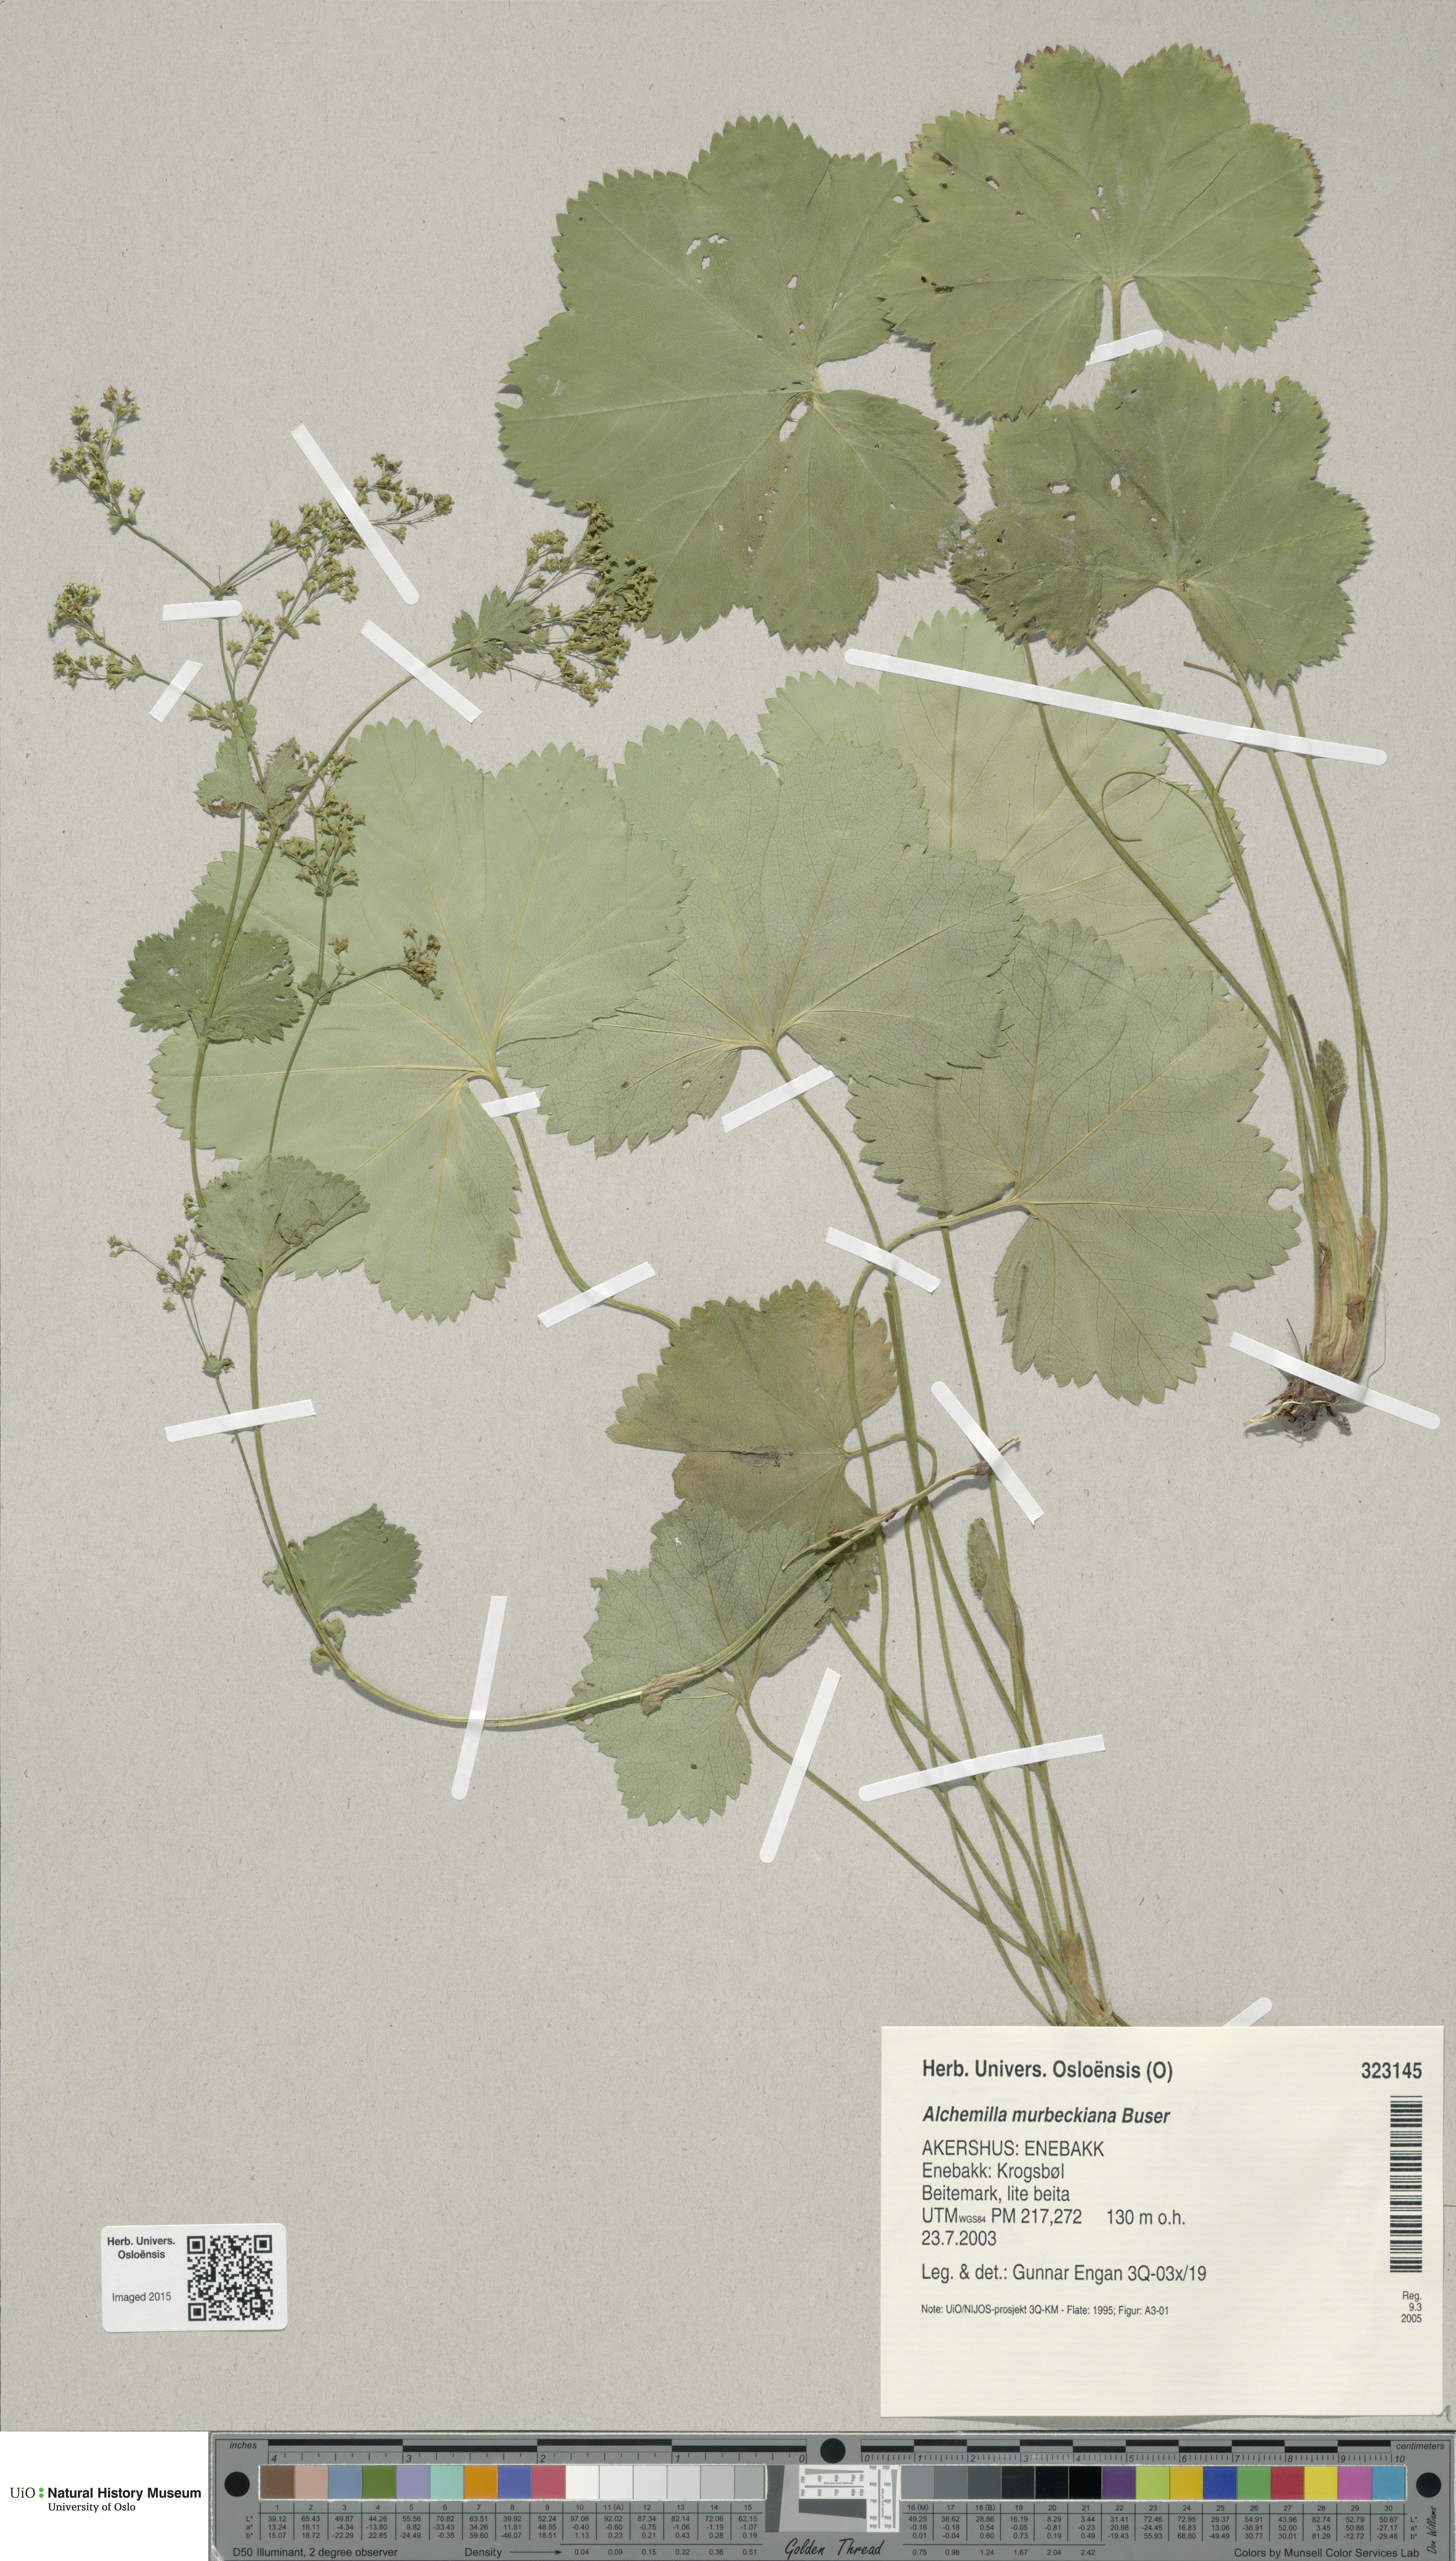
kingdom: Plantae
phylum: Tracheophyta
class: Magnoliopsida
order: Rosales
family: Rosaceae
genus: Alchemilla
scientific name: Alchemilla murbeckiana
